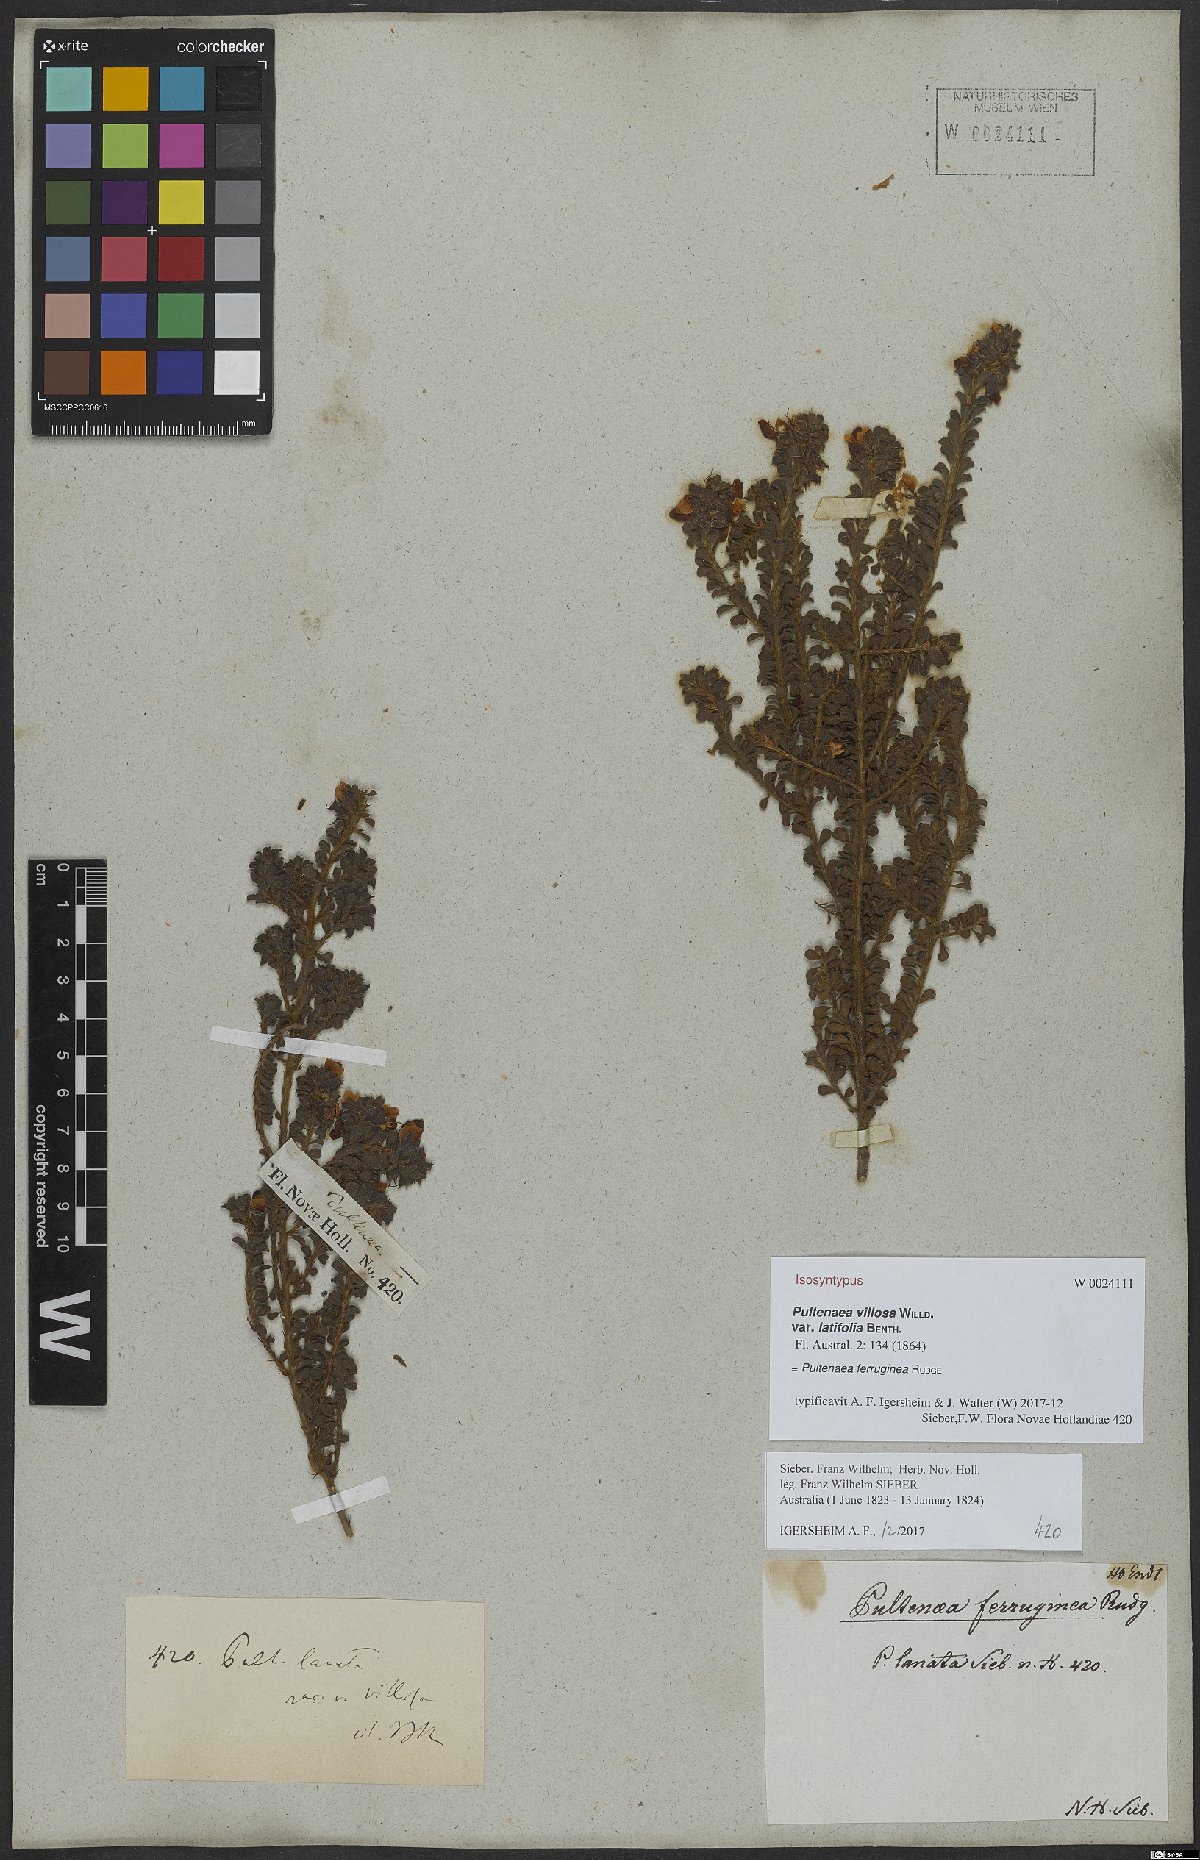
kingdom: Plantae
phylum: Tracheophyta
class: Magnoliopsida
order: Fabales
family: Fabaceae
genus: Pultenaea
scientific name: Pultenaea ferruginea
